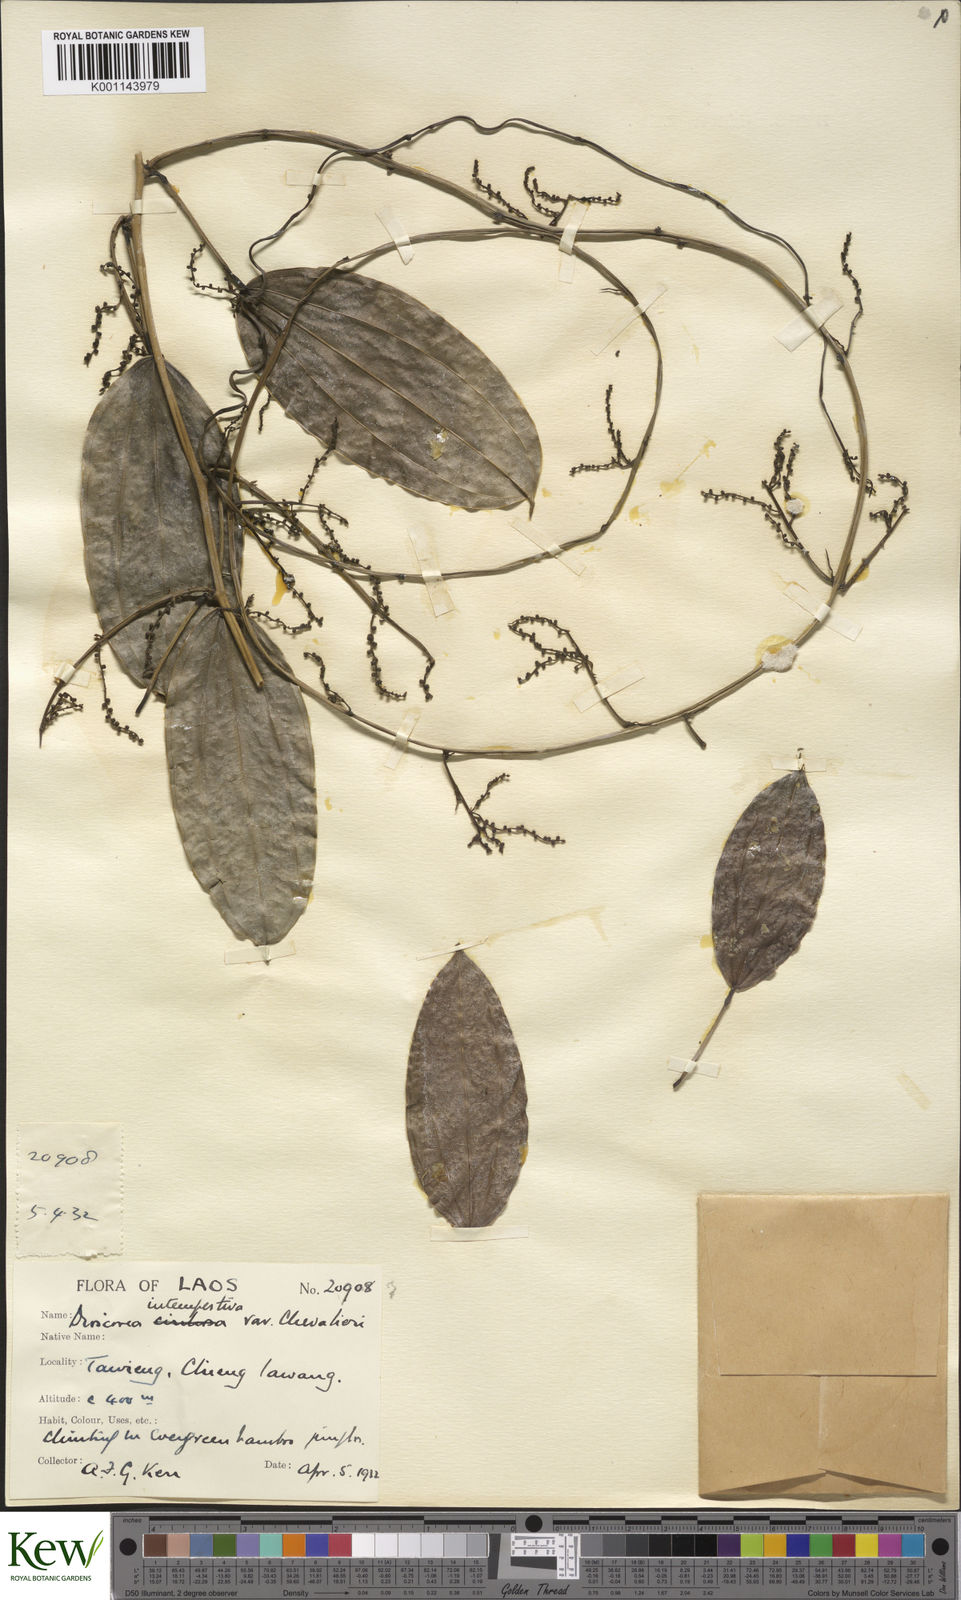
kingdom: Plantae
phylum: Tracheophyta
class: Liliopsida
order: Dioscoreales
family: Dioscoreaceae
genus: Dioscorea
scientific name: Dioscorea cirrhosa
